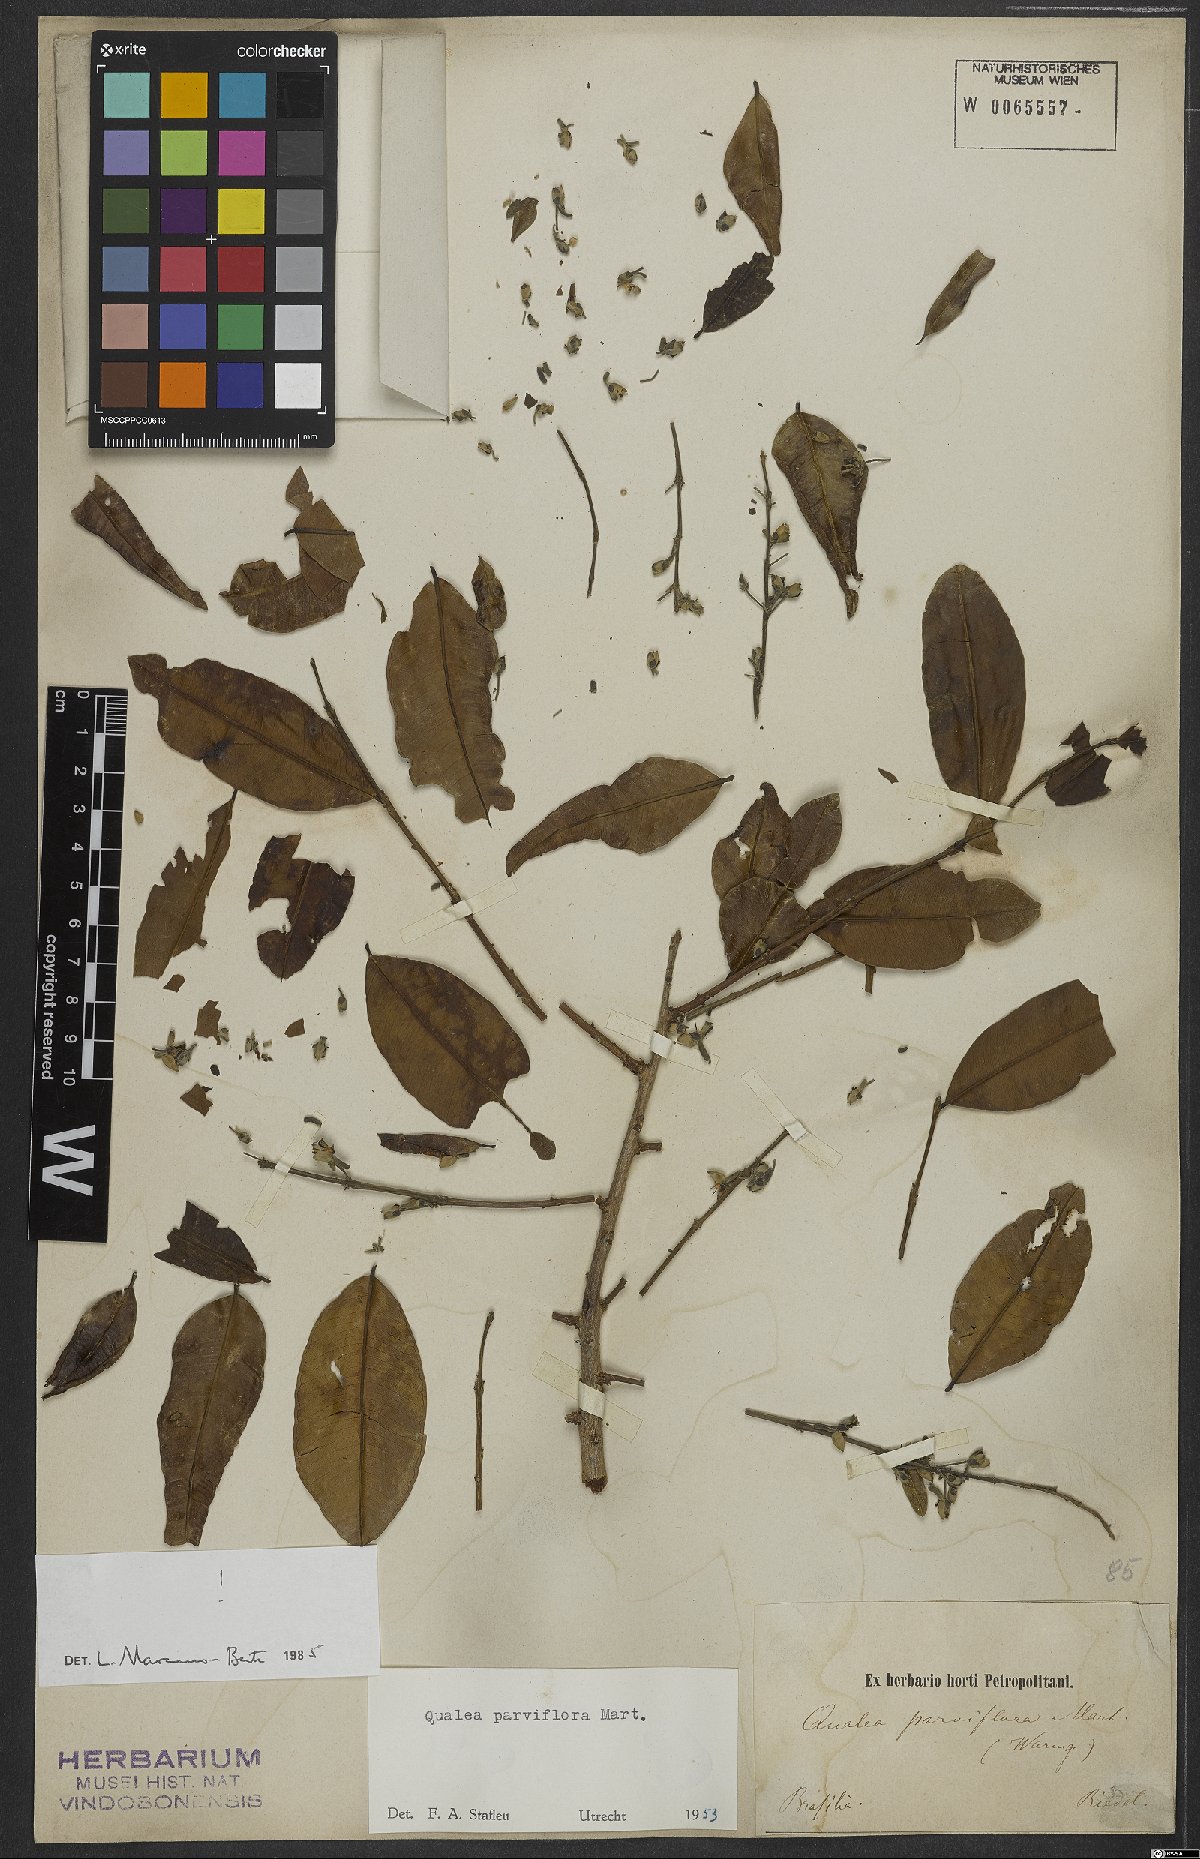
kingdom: Plantae
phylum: Tracheophyta
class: Magnoliopsida
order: Myrtales
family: Vochysiaceae
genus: Qualea
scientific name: Qualea parviflora
